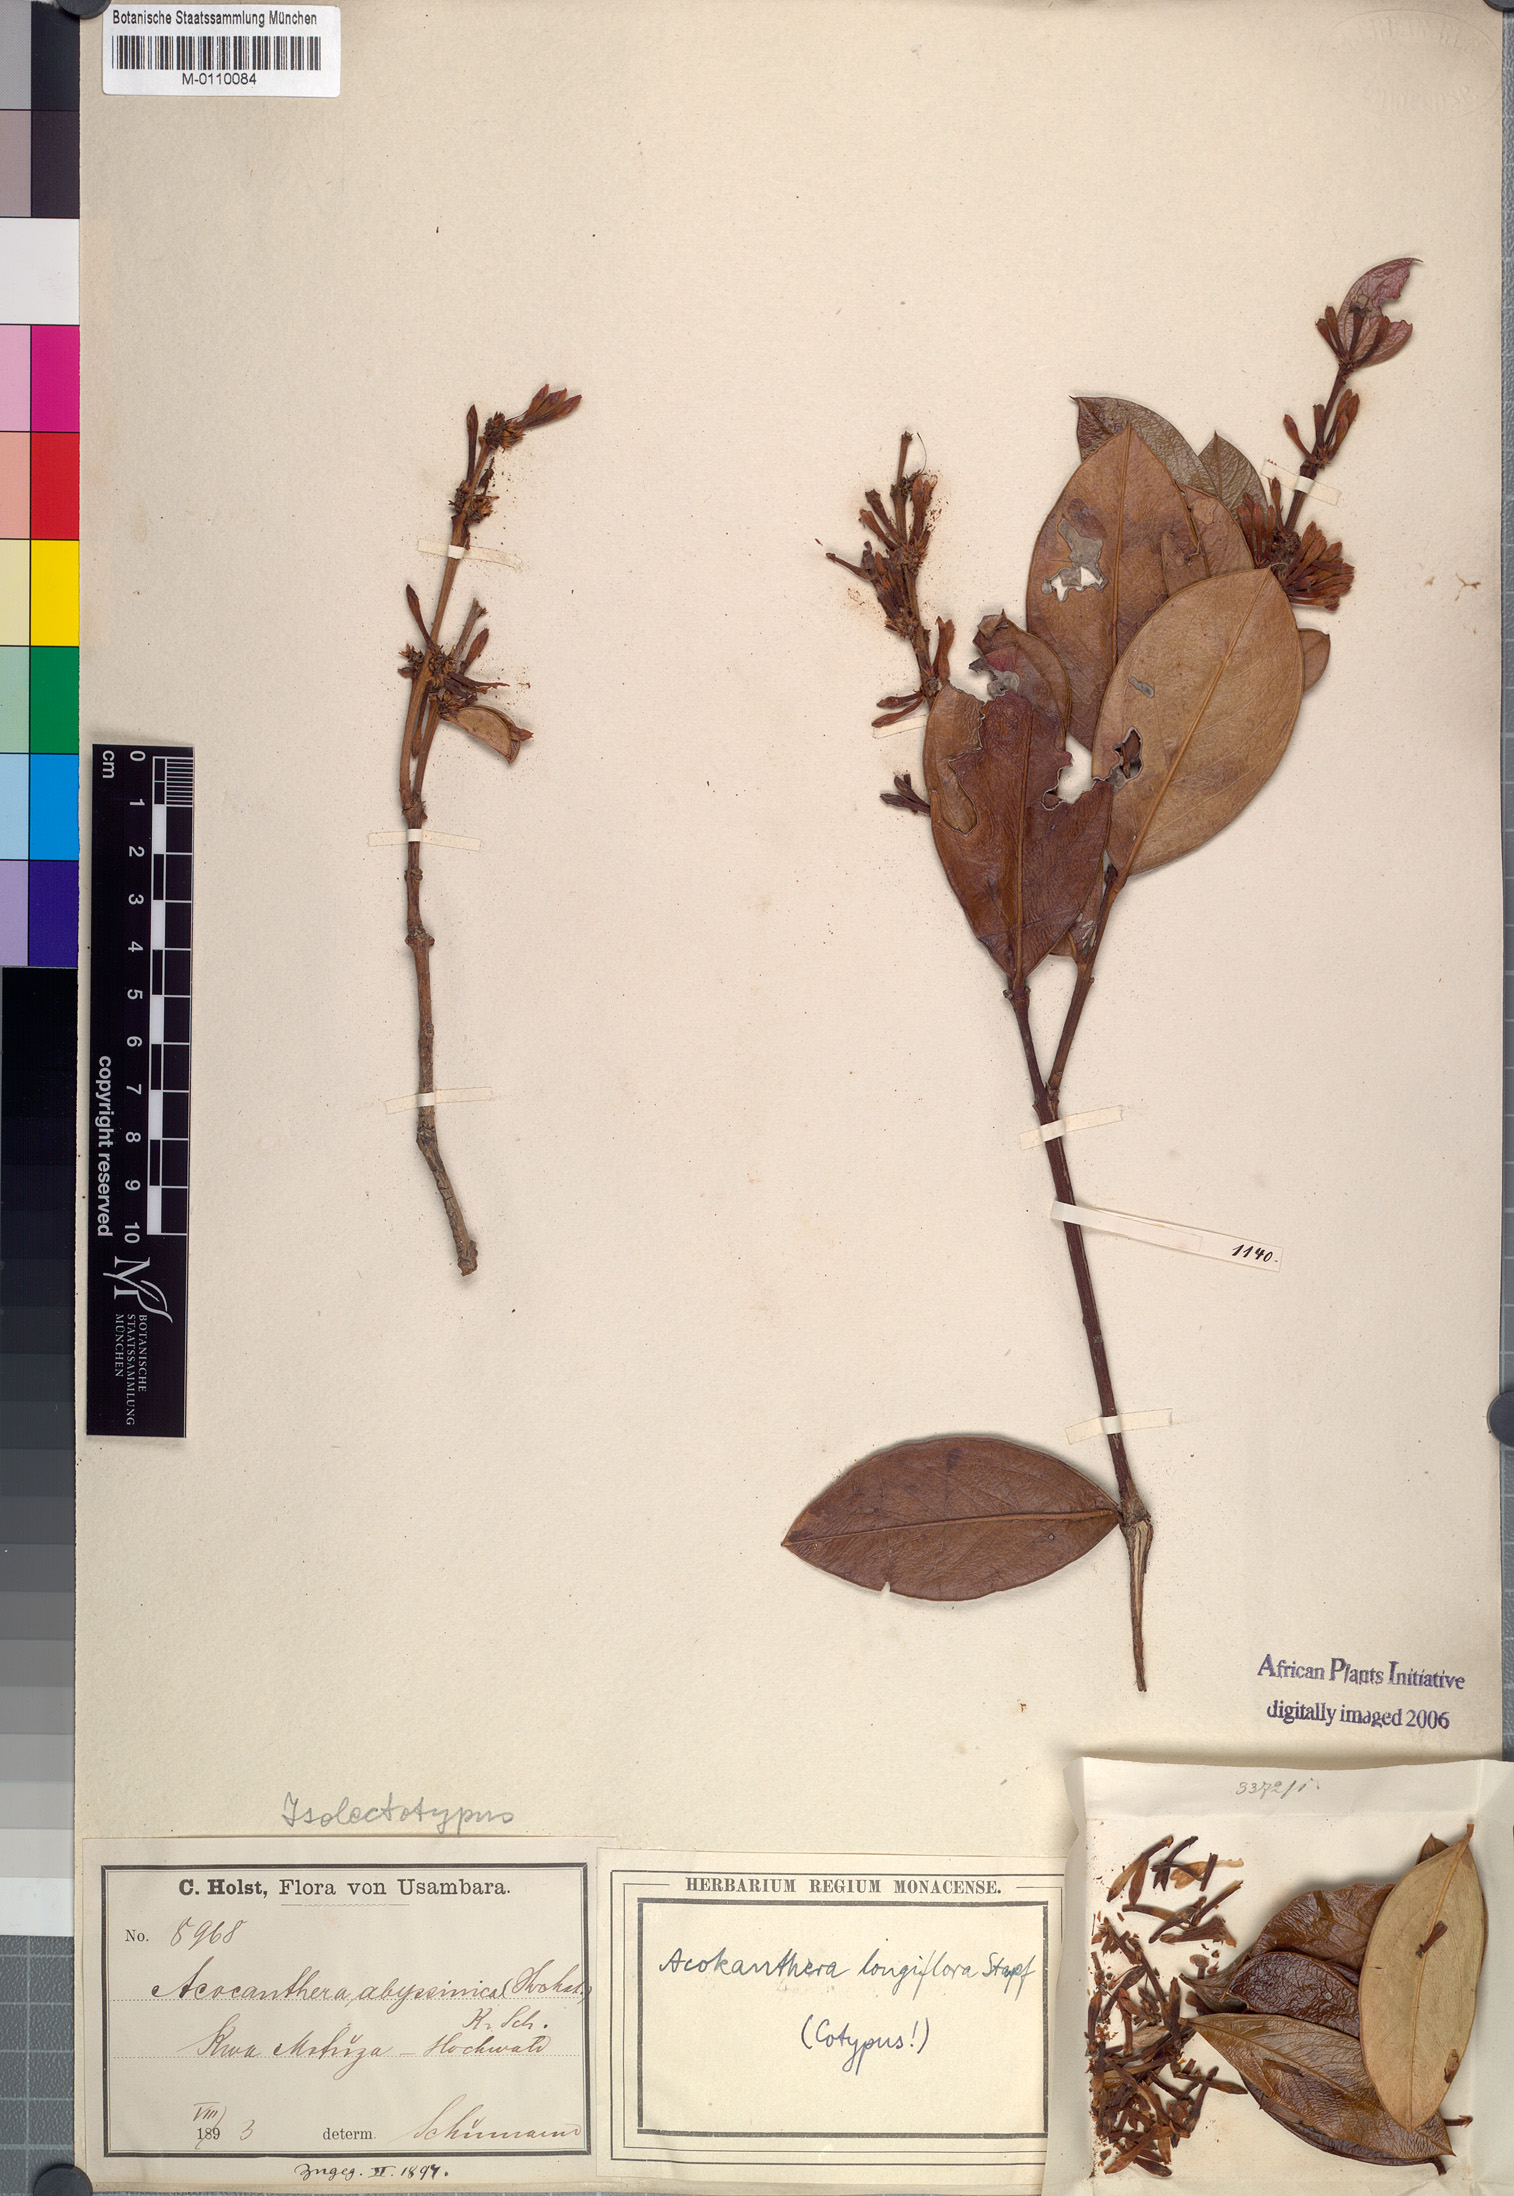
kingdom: Plantae
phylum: Tracheophyta
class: Magnoliopsida
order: Gentianales
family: Apocynaceae
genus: Acokanthera
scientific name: Acokanthera oppositifolia
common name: Bushman's-poison
